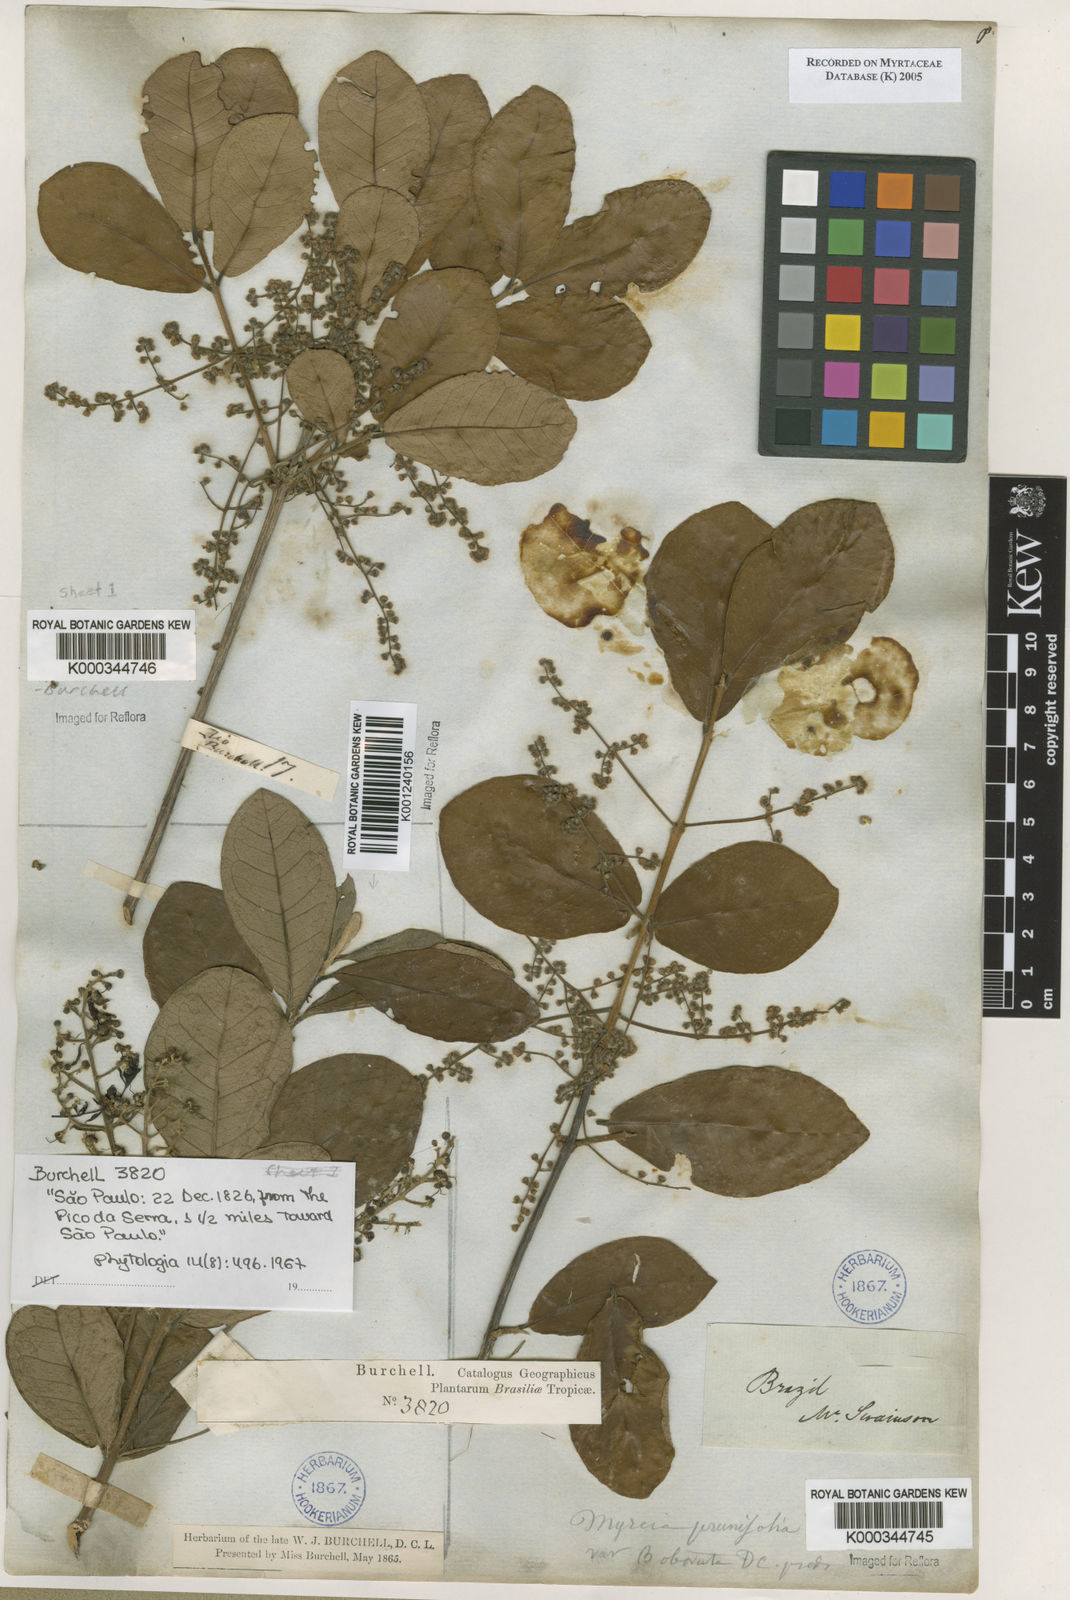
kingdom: Plantae
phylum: Tracheophyta
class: Magnoliopsida
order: Myrtales
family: Myrtaceae
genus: Myrcia
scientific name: Myrcia tomentosa
